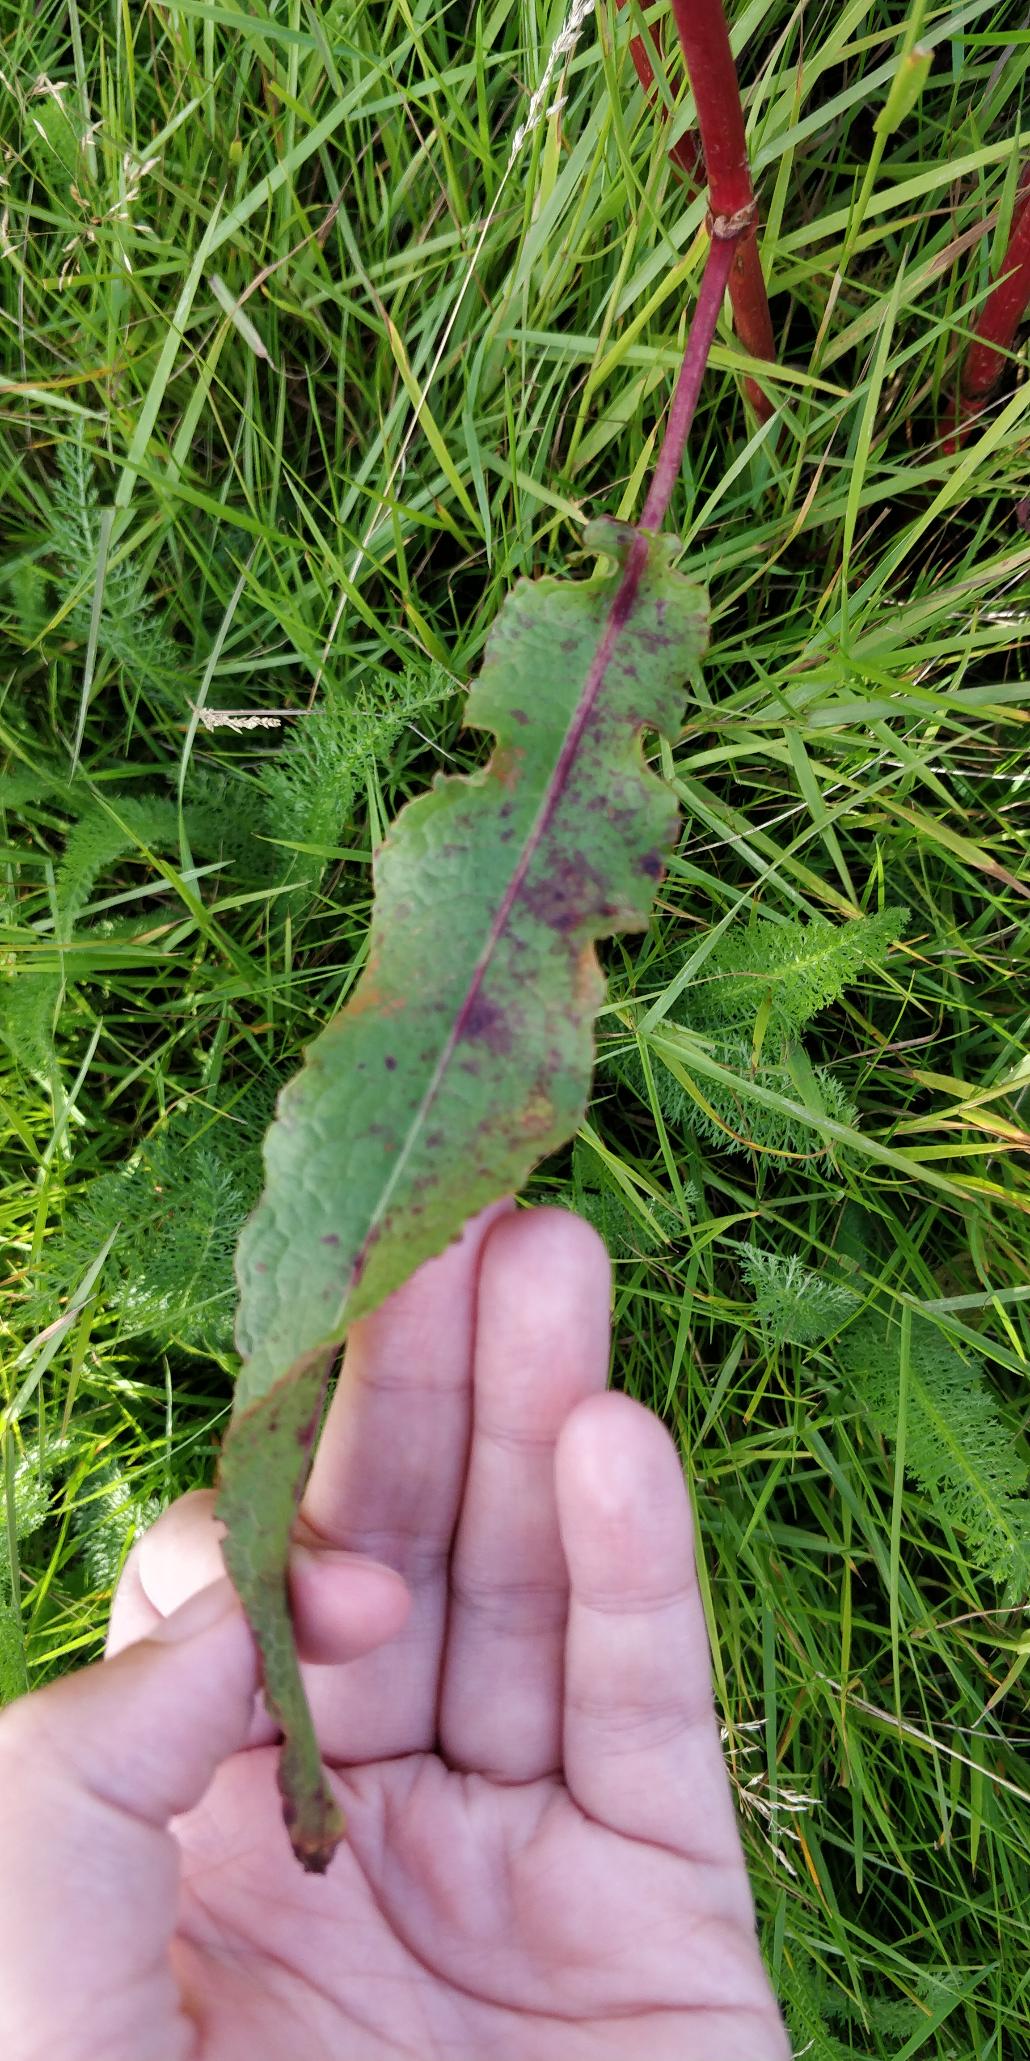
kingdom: Plantae
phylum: Tracheophyta
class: Magnoliopsida
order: Caryophyllales
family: Polygonaceae
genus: Rumex
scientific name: Rumex crispus
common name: Kruset skræppe
